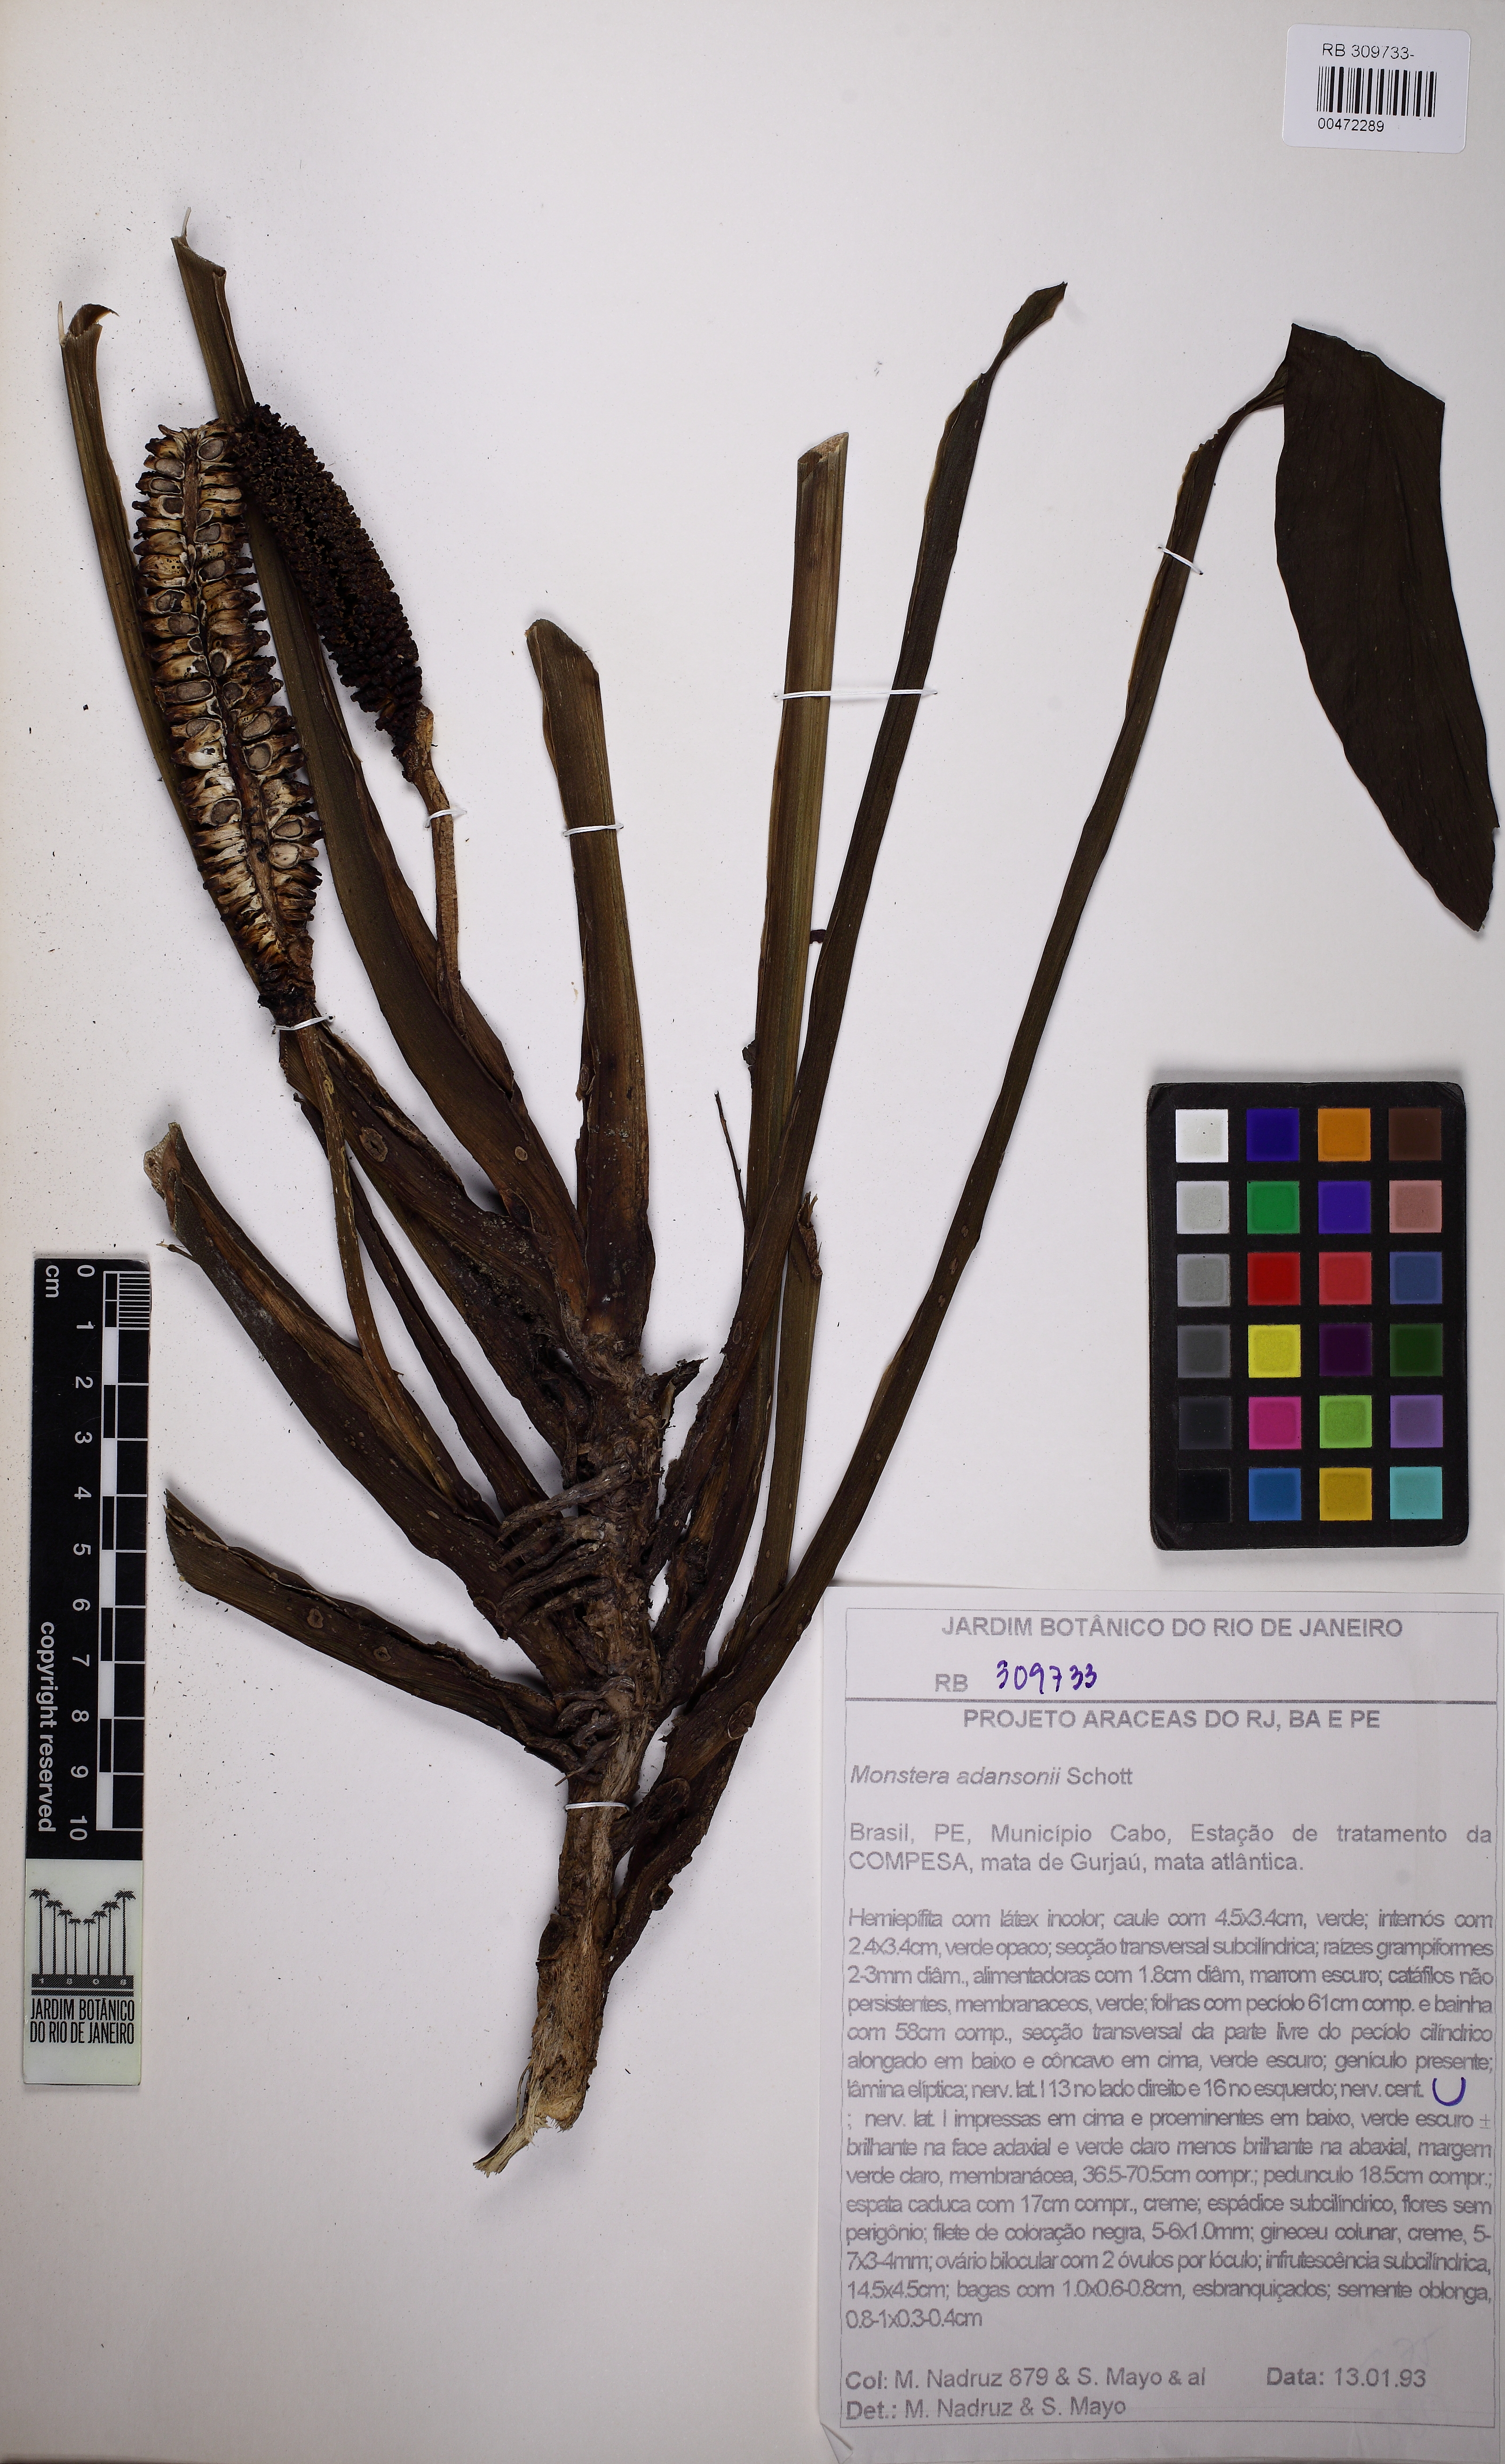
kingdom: Plantae
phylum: Tracheophyta
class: Liliopsida
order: Alismatales
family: Araceae
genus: Monstera
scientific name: Monstera adansonii
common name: Tarovine
